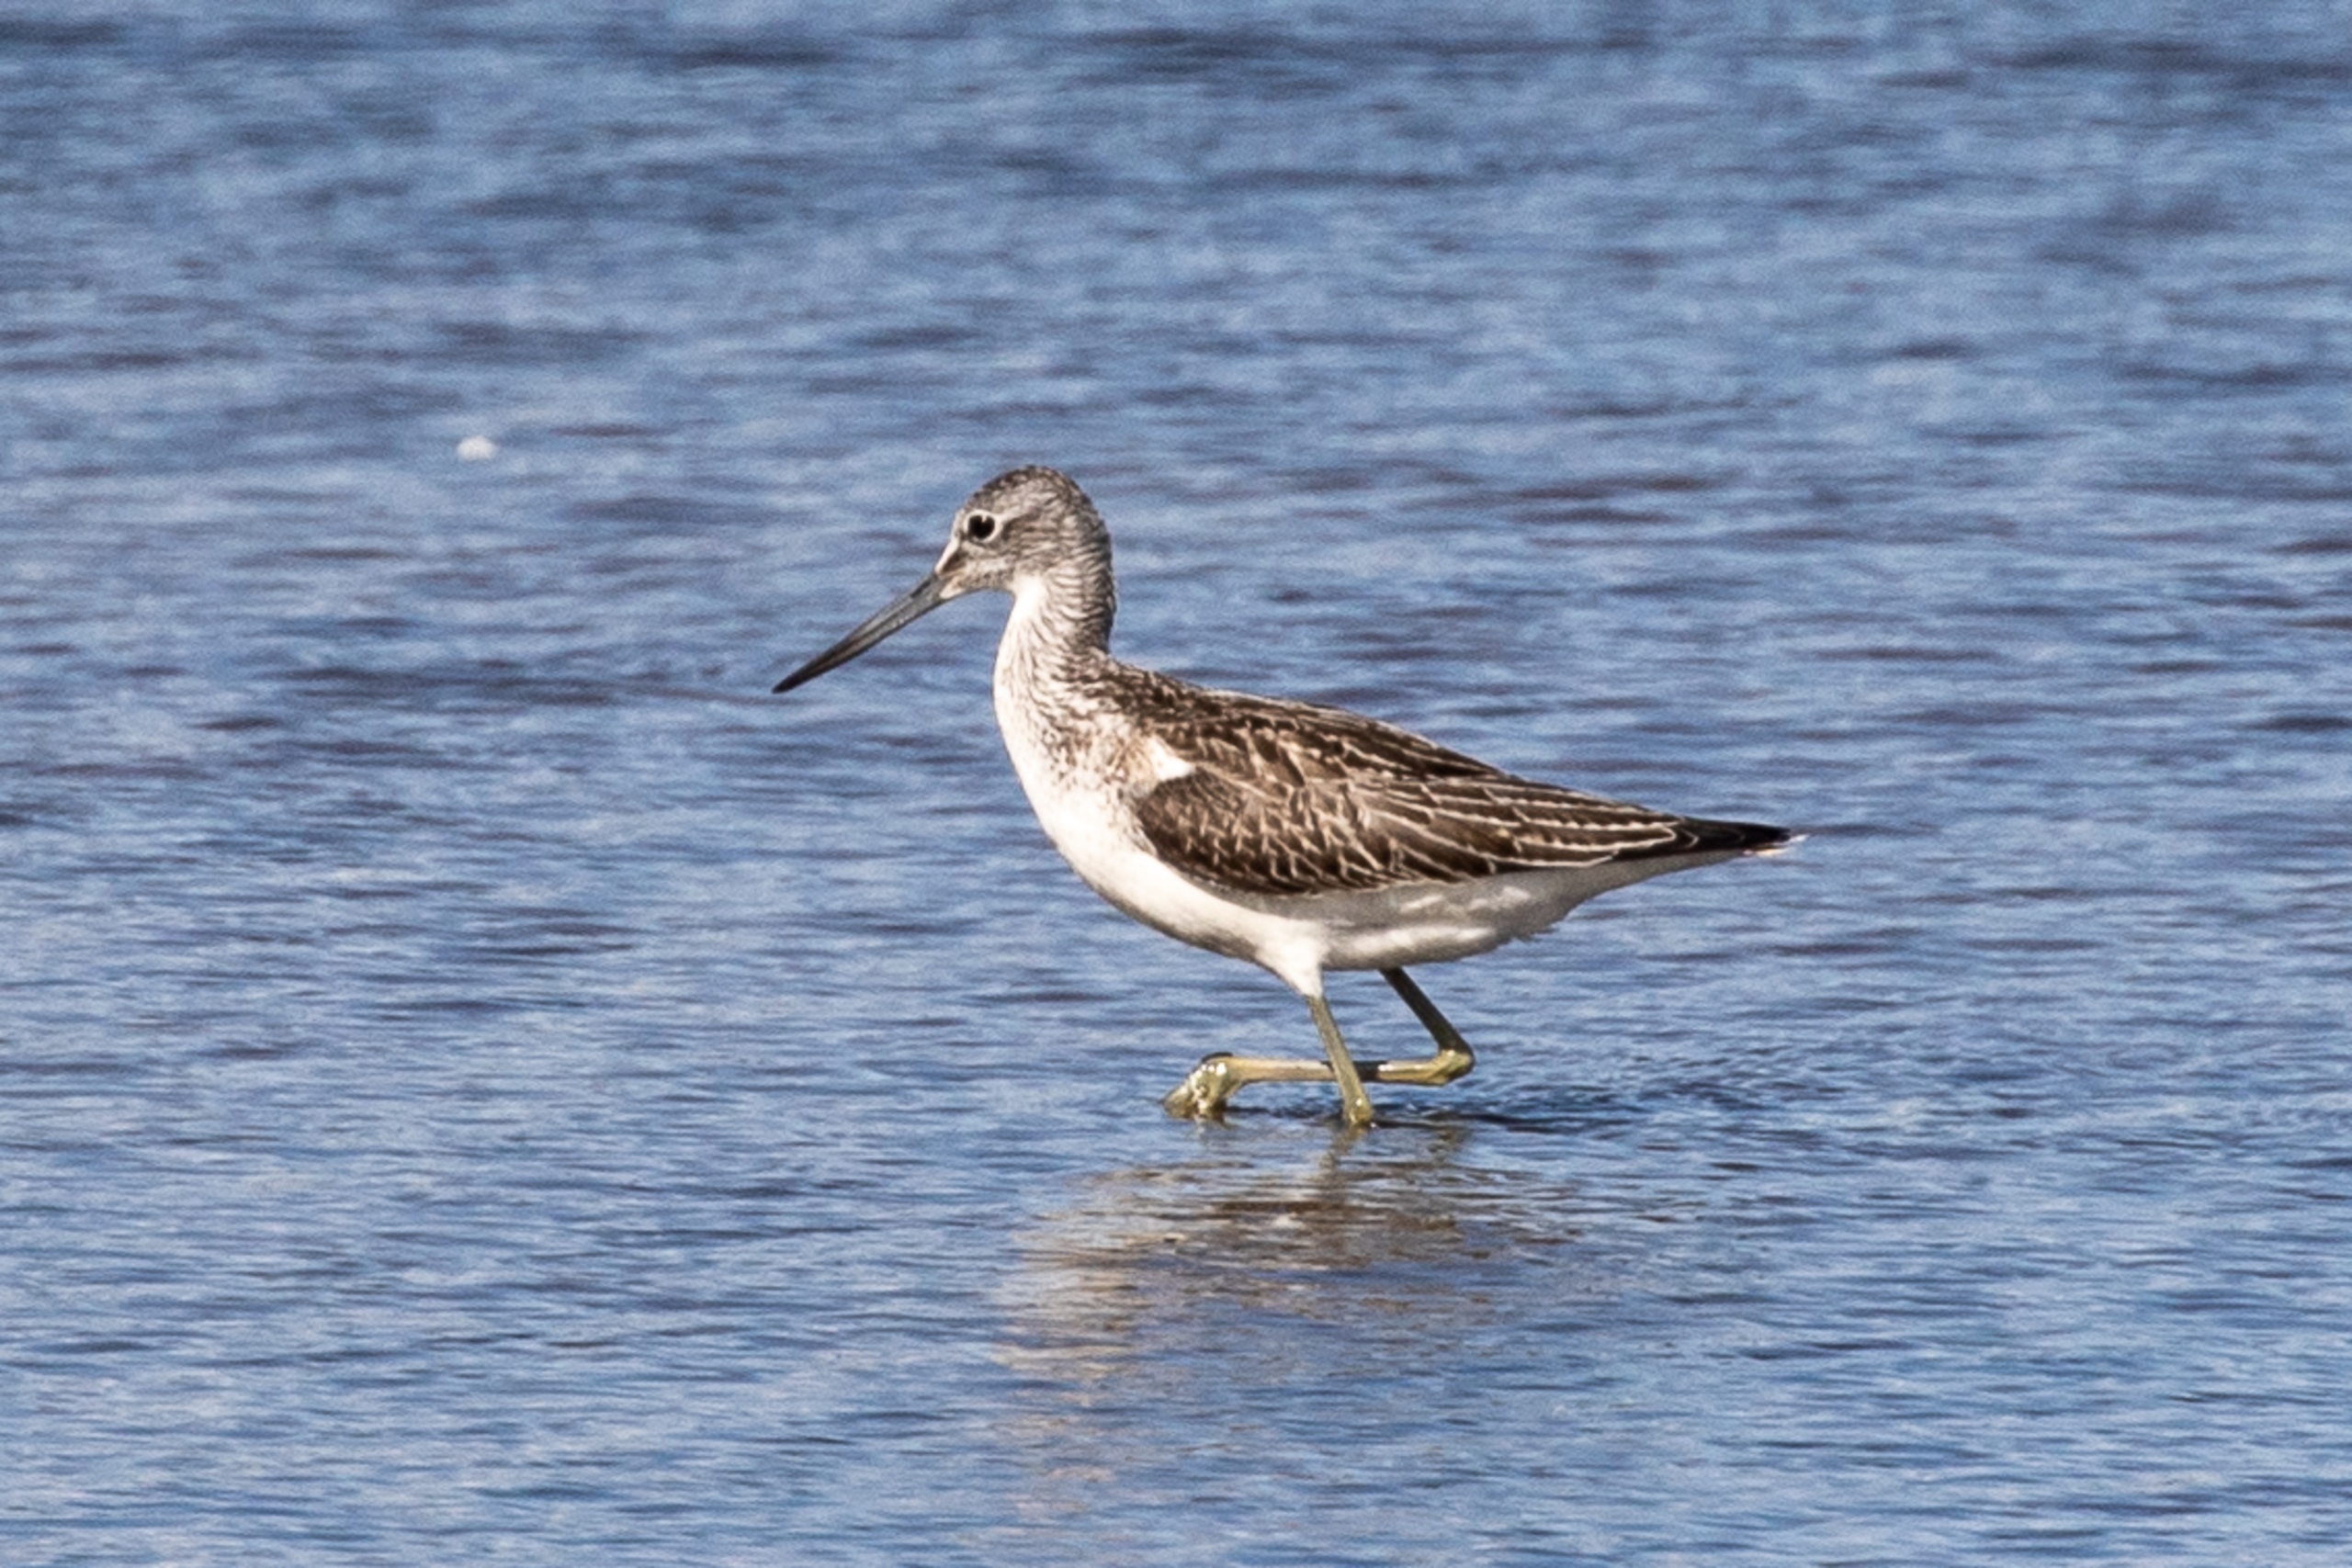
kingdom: Animalia
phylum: Chordata
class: Aves
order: Charadriiformes
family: Scolopacidae
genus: Tringa
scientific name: Tringa nebularia
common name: Hvidklire
